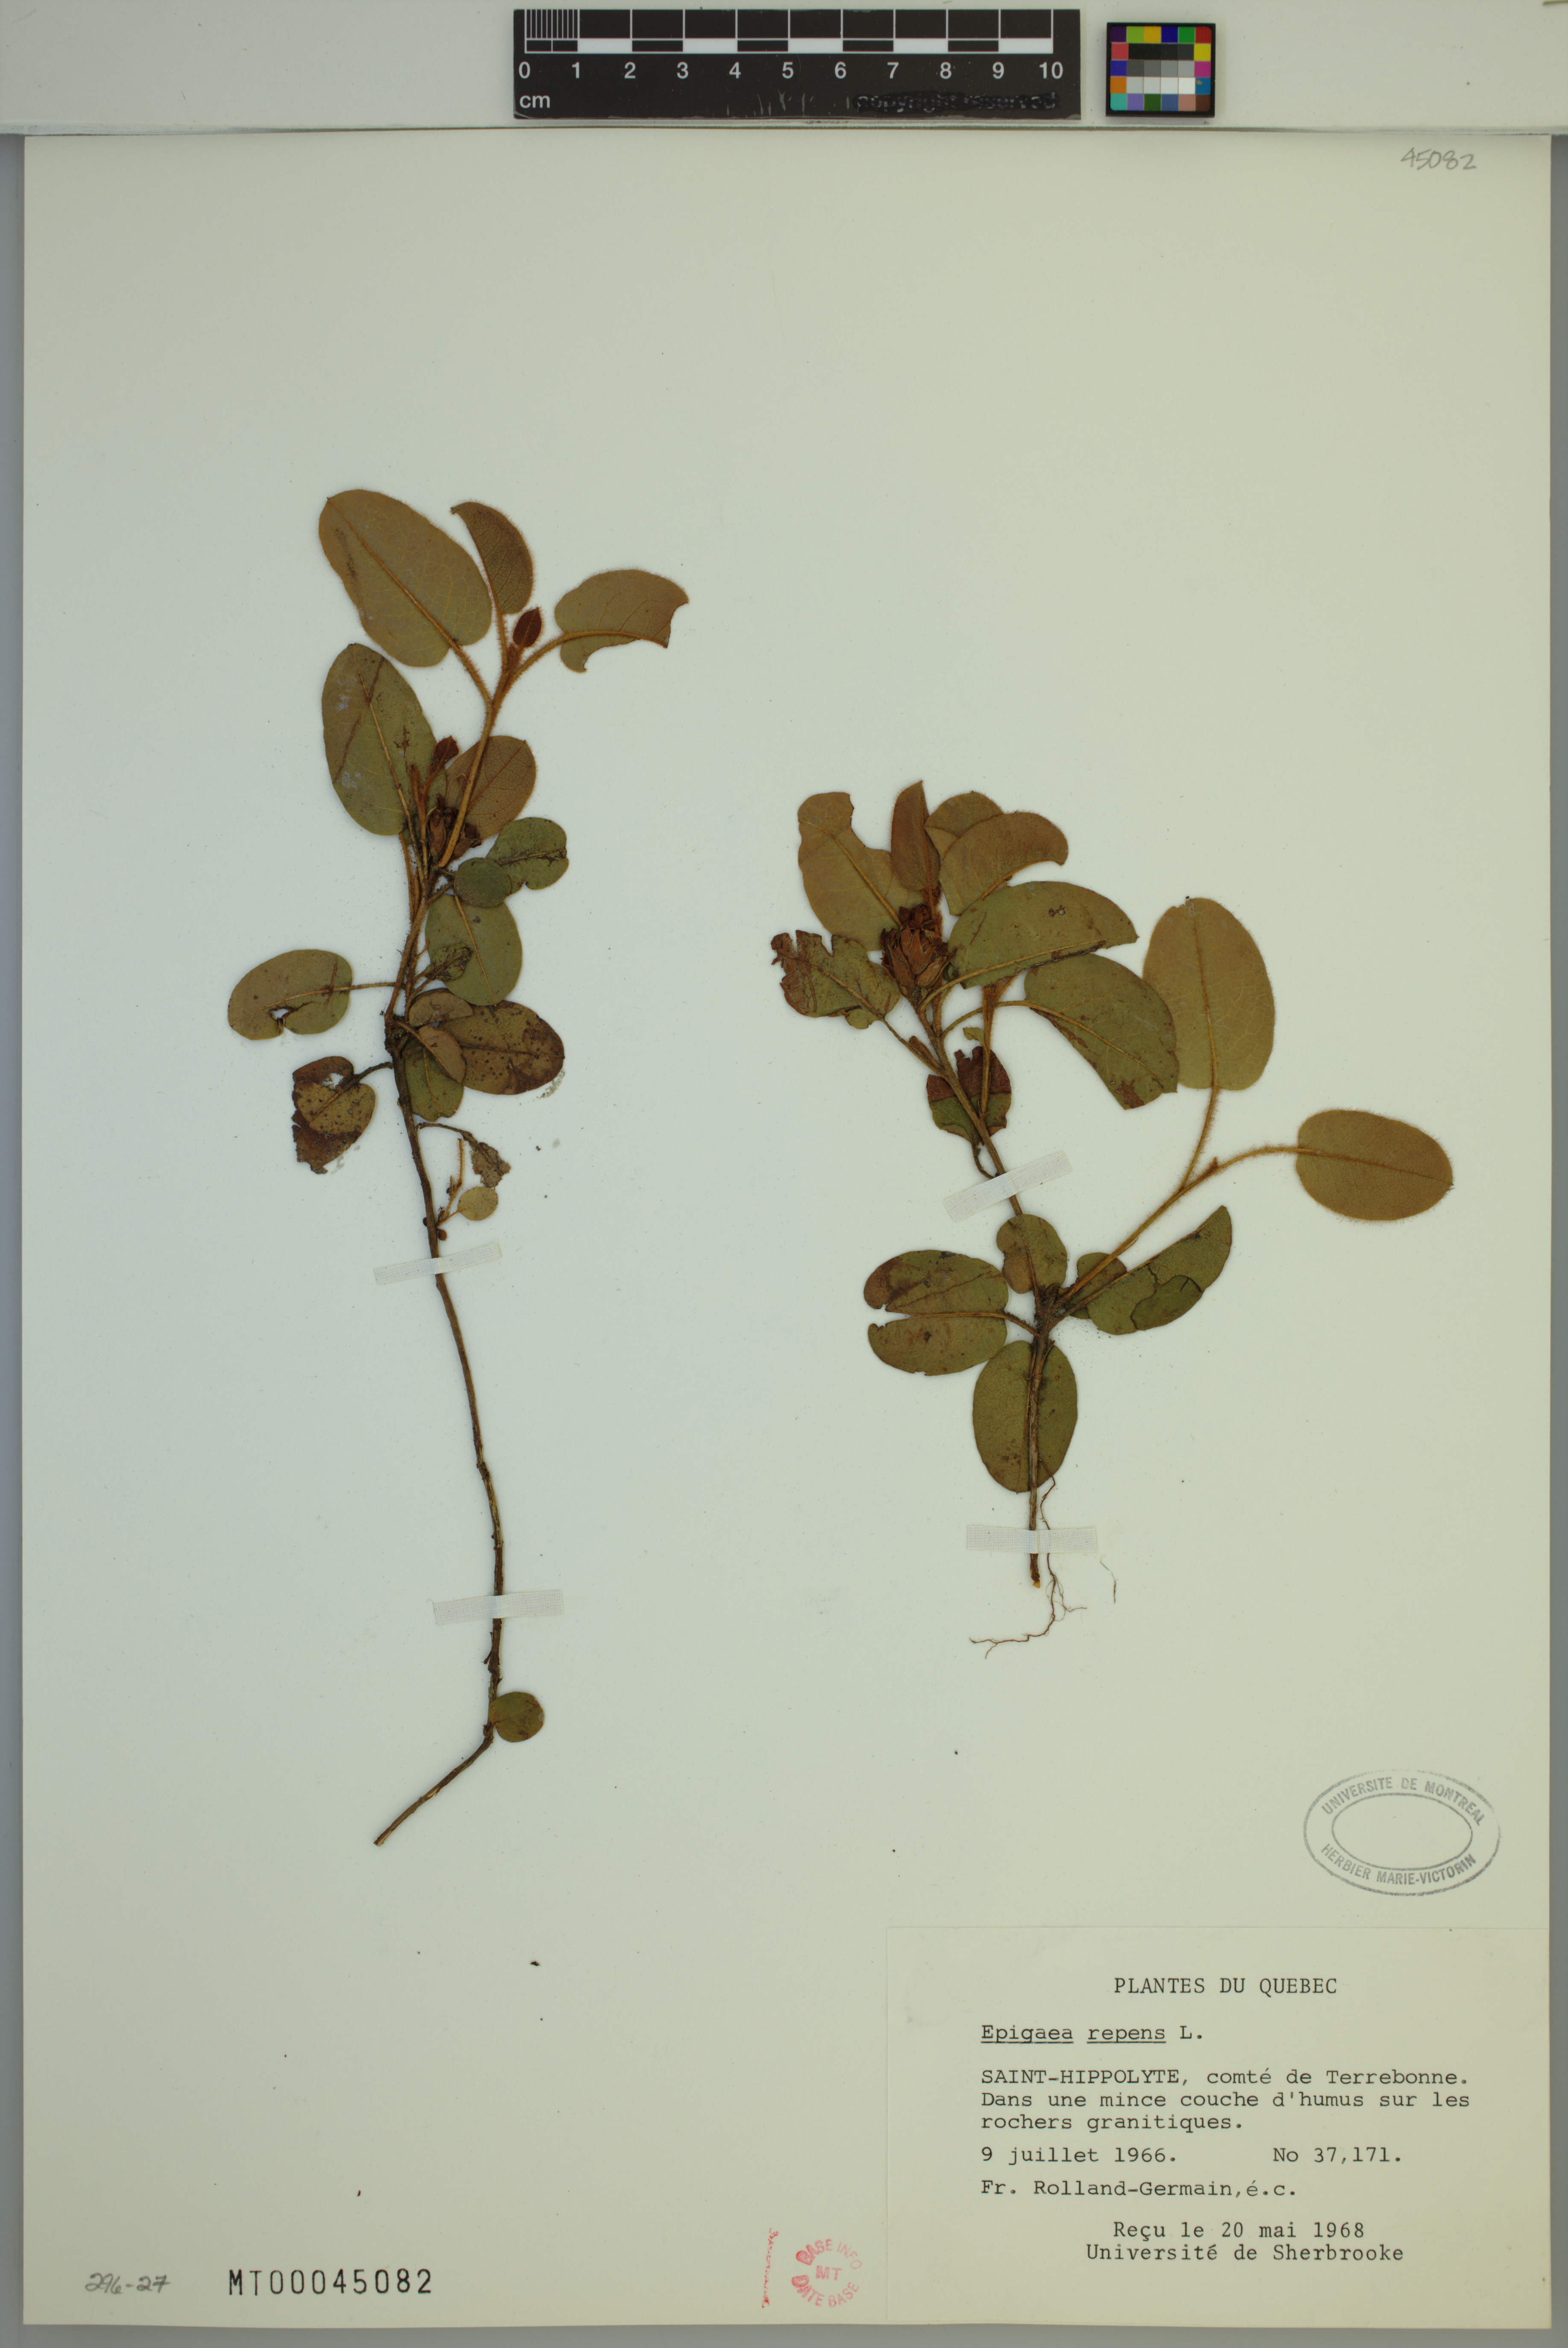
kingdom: Plantae
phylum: Tracheophyta
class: Magnoliopsida
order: Ericales
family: Ericaceae
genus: Epigaea
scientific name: Epigaea repens
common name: Gravelroot
